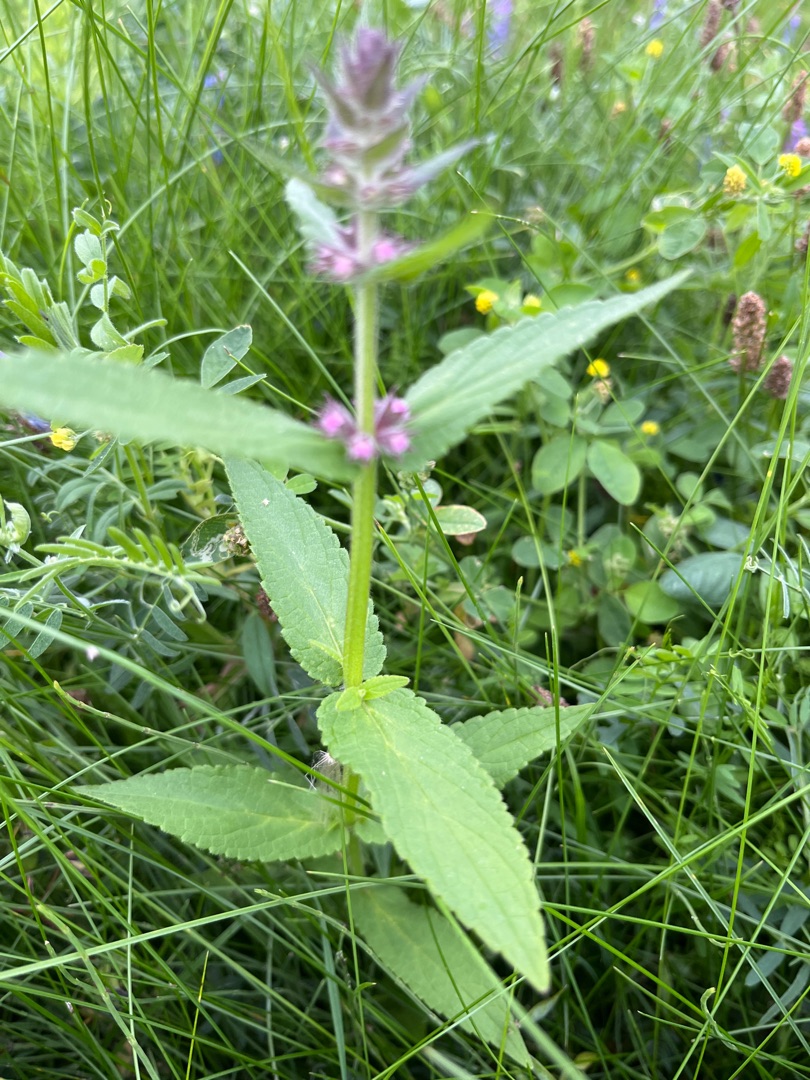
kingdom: Plantae
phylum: Tracheophyta
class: Magnoliopsida
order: Lamiales
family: Lamiaceae
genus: Stachys
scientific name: Stachys palustris
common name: Kær-galtetand
